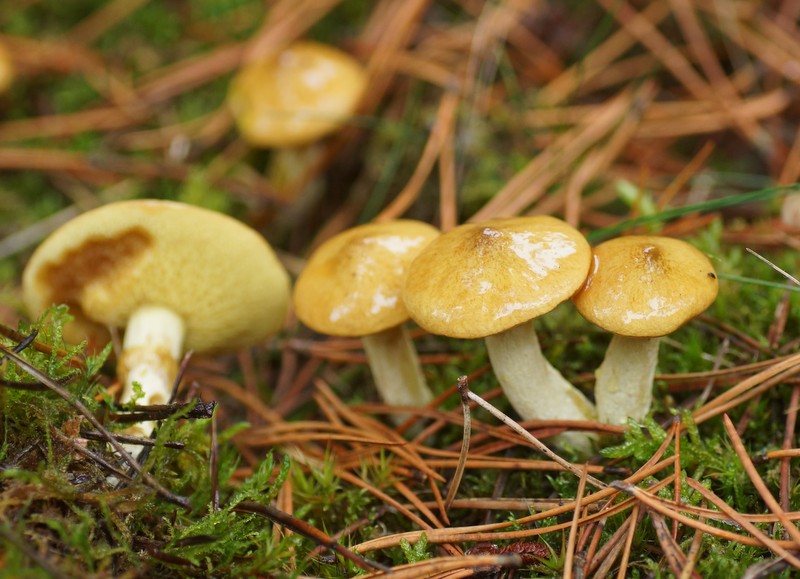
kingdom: Fungi
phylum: Basidiomycota
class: Agaricomycetes
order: Boletales
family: Suillaceae
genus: Suillus
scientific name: Suillus flavidus
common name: mose-slimrørhat
